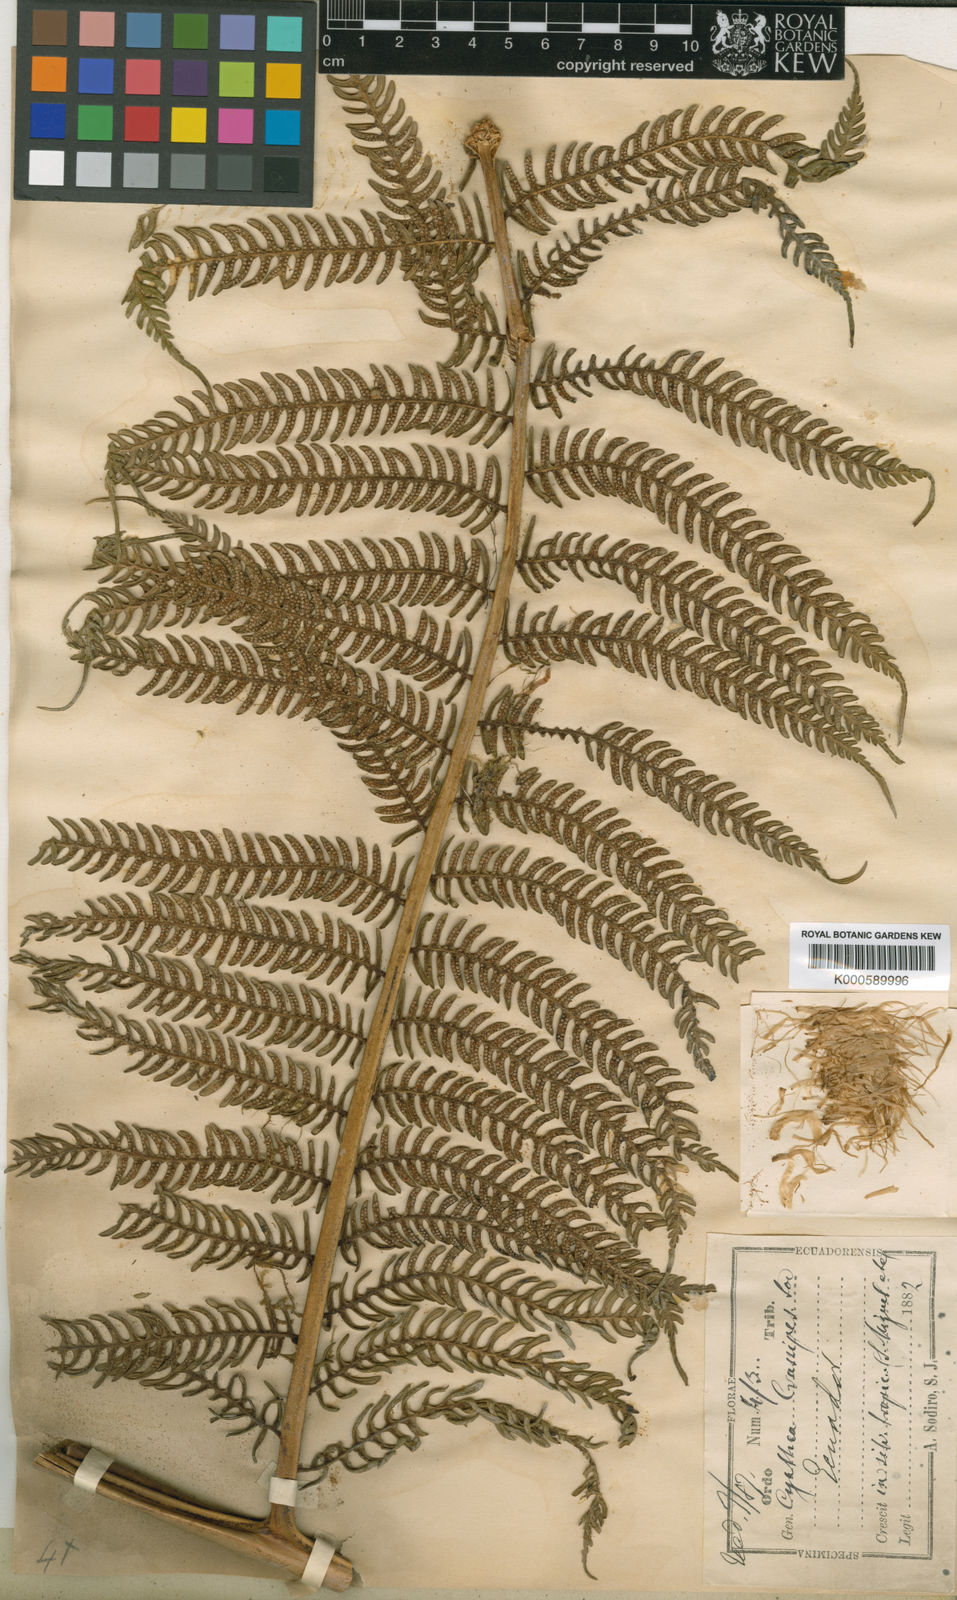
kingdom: Plantae
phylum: Tracheophyta
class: Polypodiopsida
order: Cyatheales
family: Cyatheaceae
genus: Sphaeropteris
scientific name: Sphaeropteris quindiuensis
